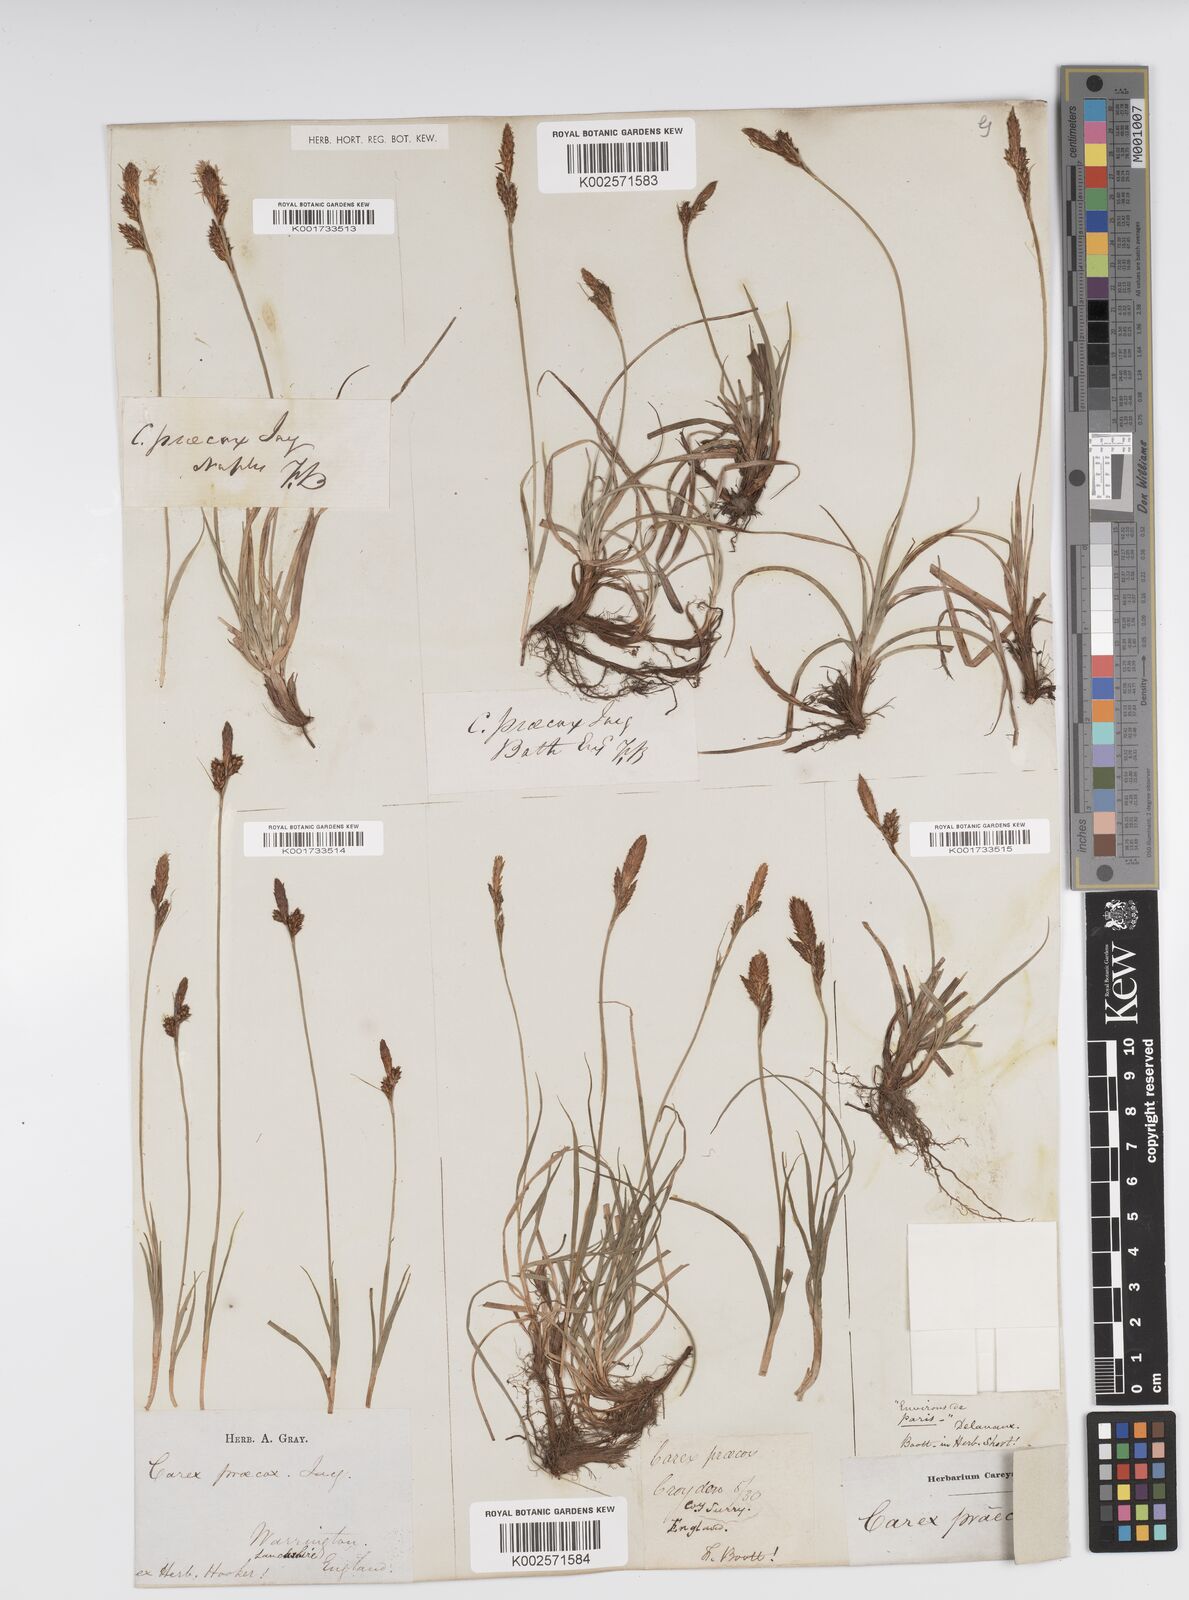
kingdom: Plantae
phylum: Tracheophyta
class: Liliopsida
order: Poales
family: Cyperaceae
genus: Carex
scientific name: Carex caryophyllea
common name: Spring sedge
